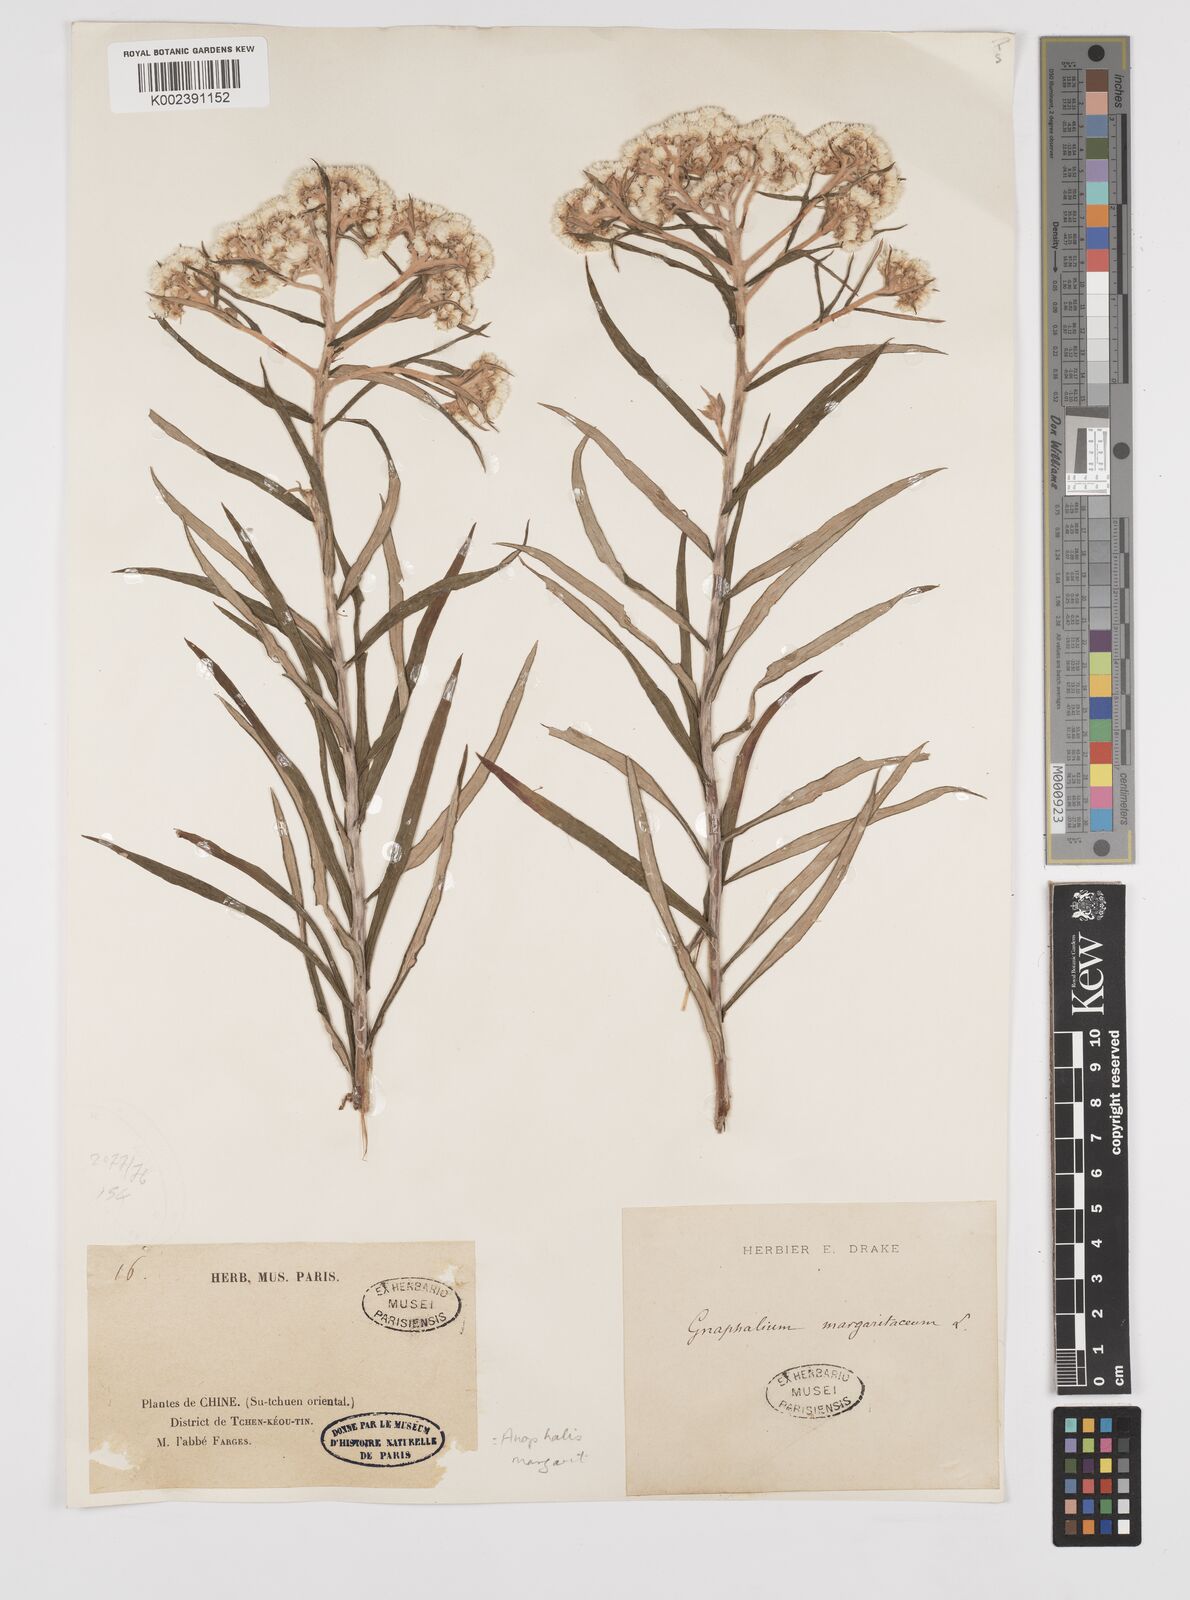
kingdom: Plantae
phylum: Tracheophyta
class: Magnoliopsida
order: Asterales
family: Asteraceae
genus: Anaphalis
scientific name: Anaphalis margaritacea
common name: Pearly everlasting
